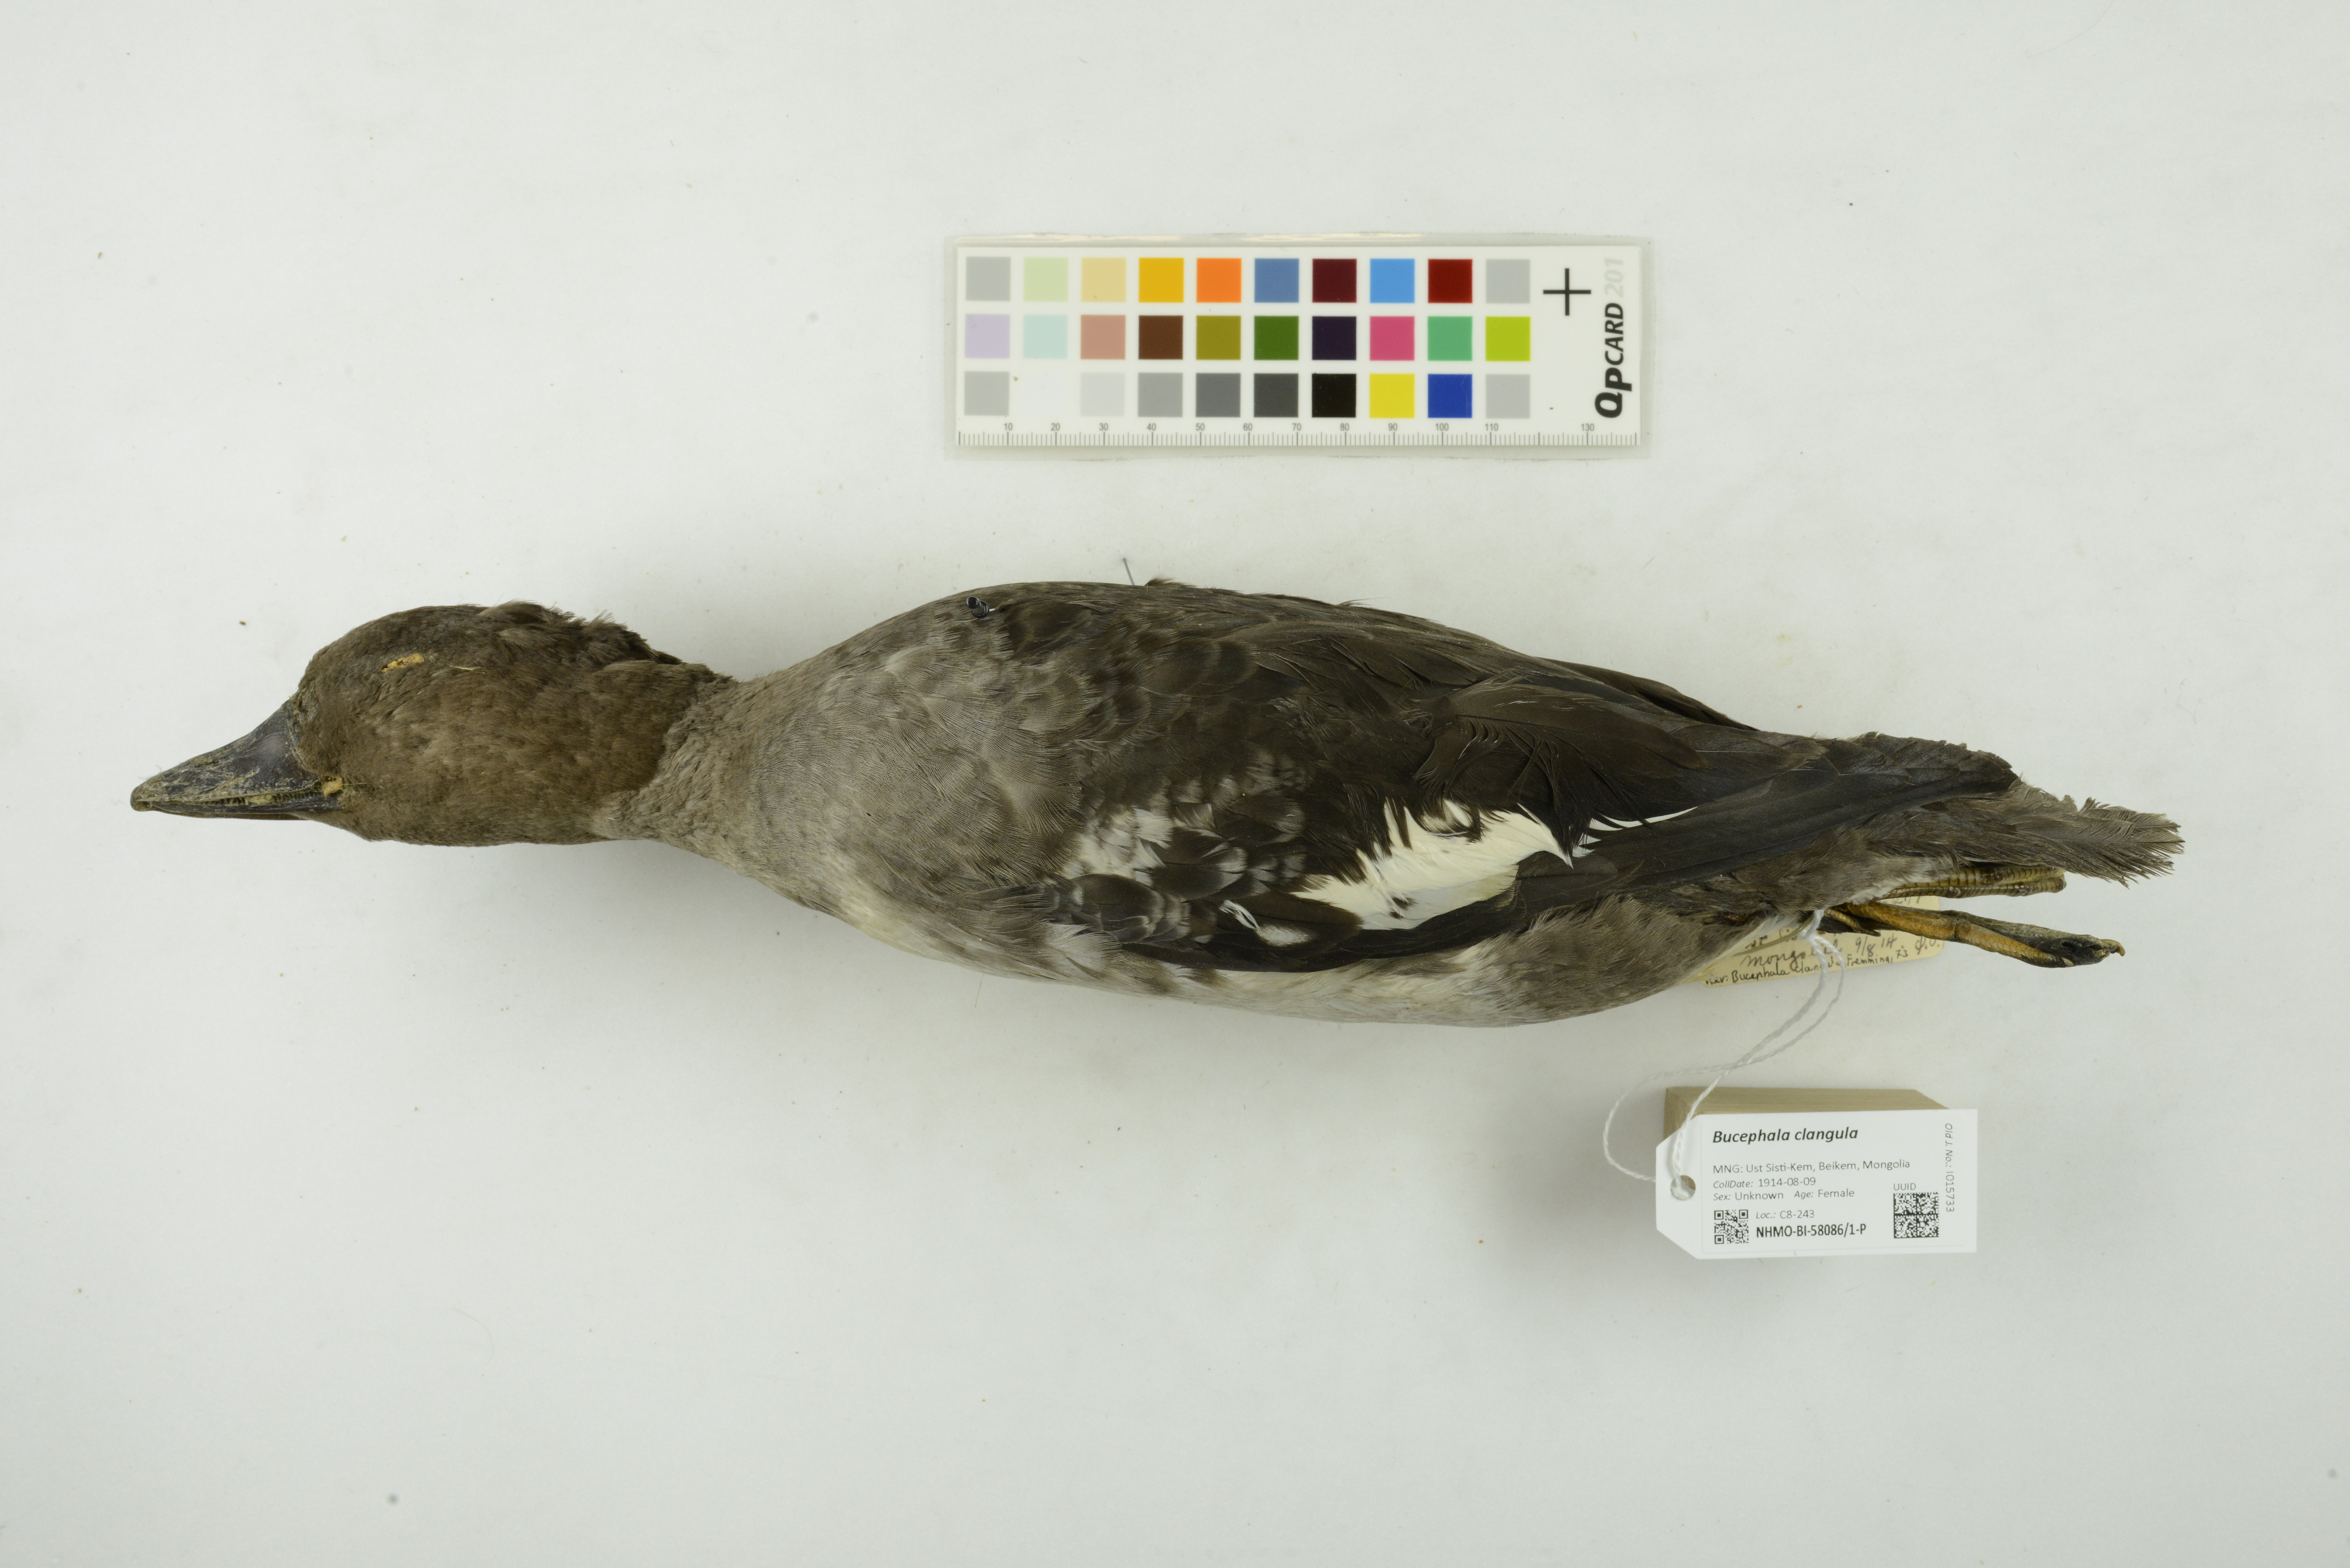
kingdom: Animalia
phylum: Chordata
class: Aves
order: Anseriformes
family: Anatidae
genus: Bucephala
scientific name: Bucephala clangula
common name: Common goldeneye
